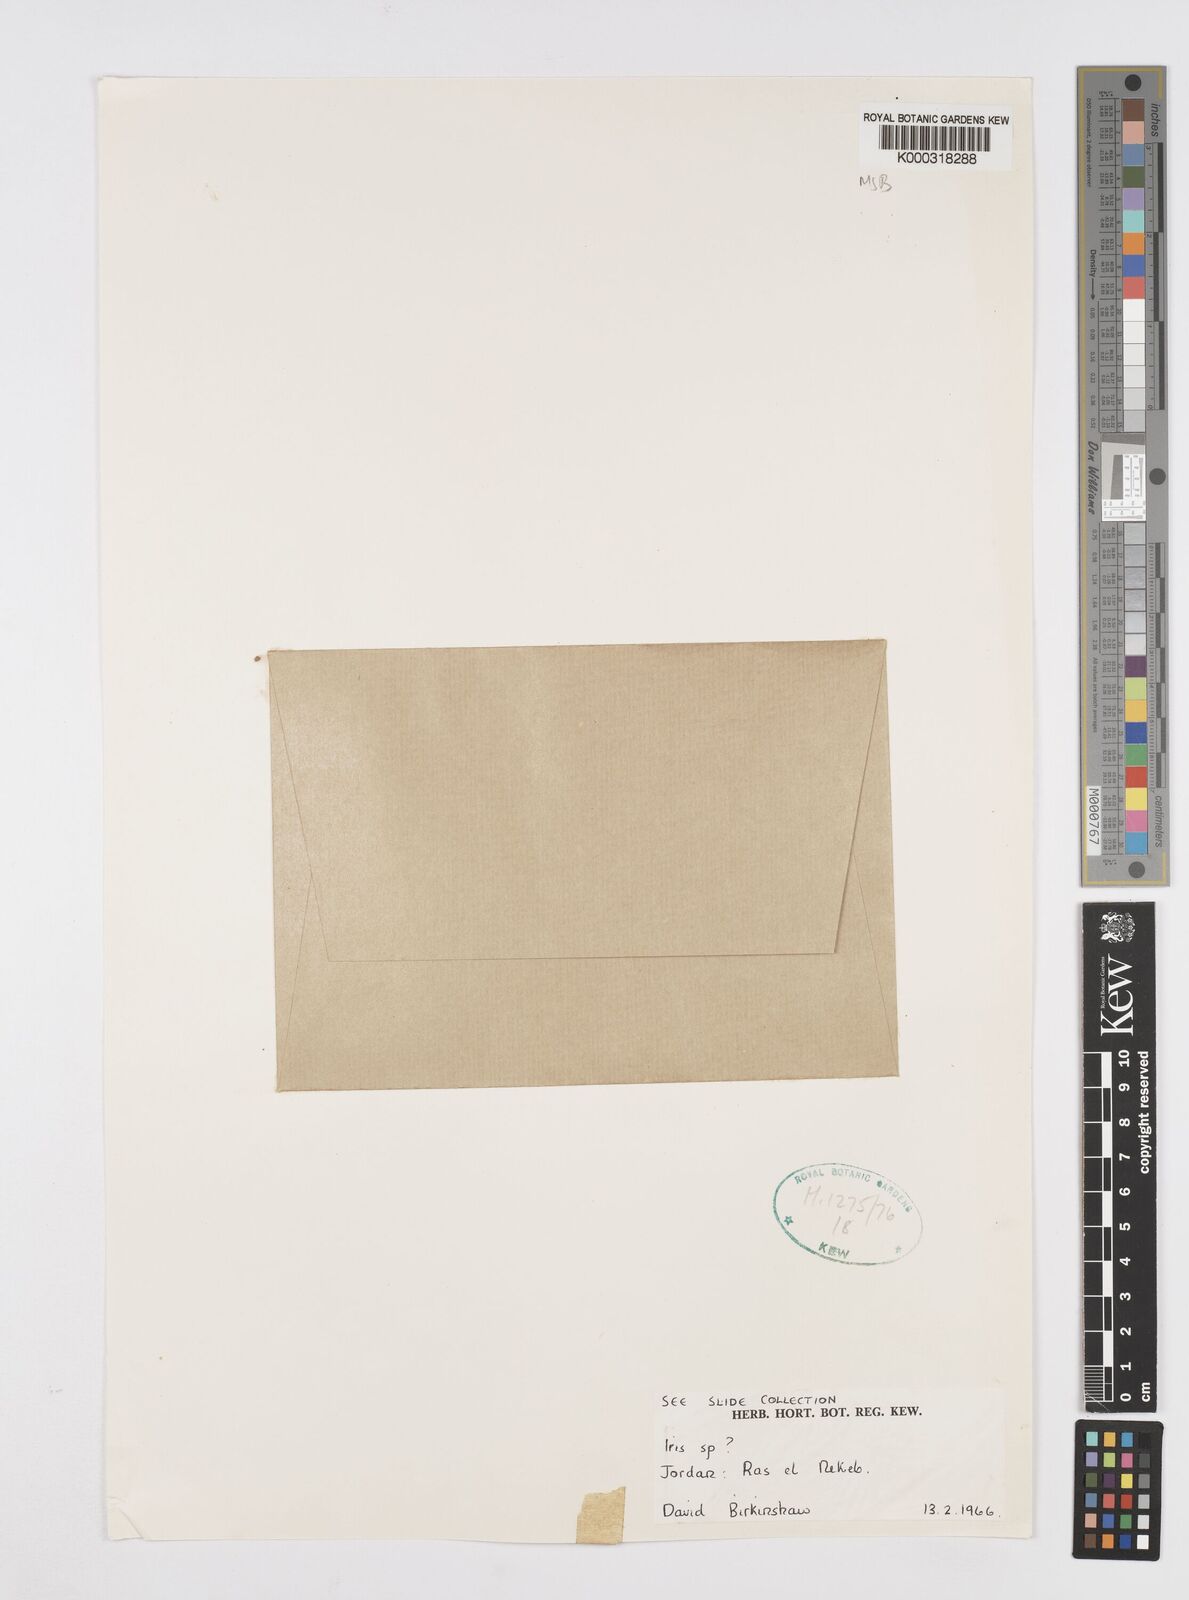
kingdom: Plantae
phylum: Tracheophyta
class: Liliopsida
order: Asparagales
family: Iridaceae
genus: Iris
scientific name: Iris regis-uzziae
